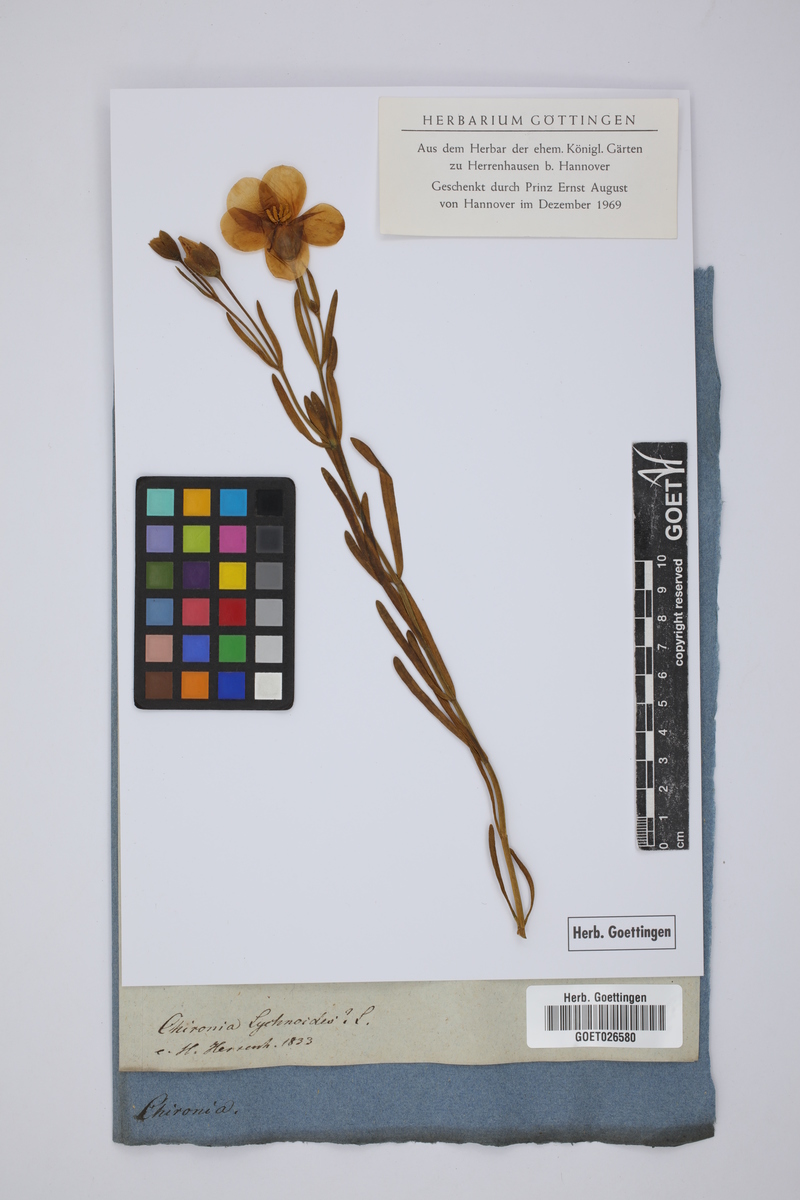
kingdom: Plantae
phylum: Tracheophyta
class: Magnoliopsida
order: Gentianales
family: Gentianaceae
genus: Chironia
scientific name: Chironia linoides
